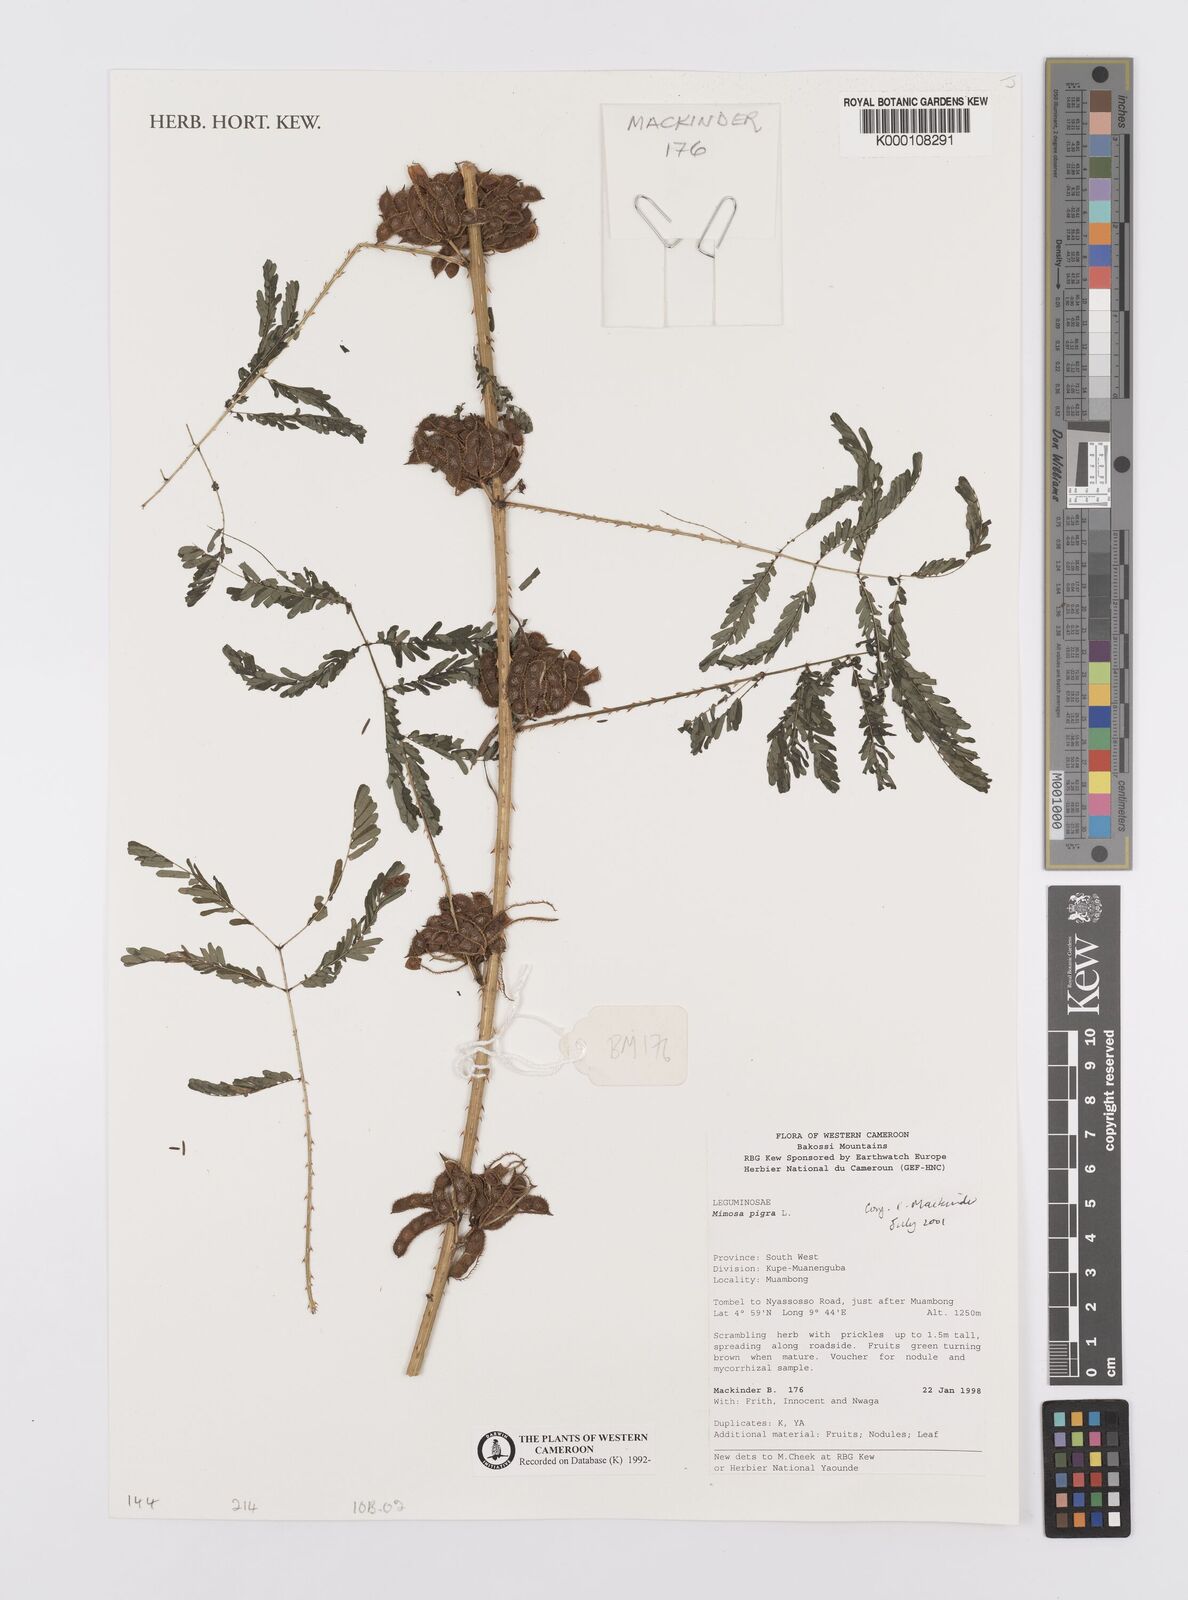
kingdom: Plantae
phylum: Tracheophyta
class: Magnoliopsida
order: Fabales
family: Fabaceae
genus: Mimosa
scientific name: Mimosa pigra
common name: Black mimosa
